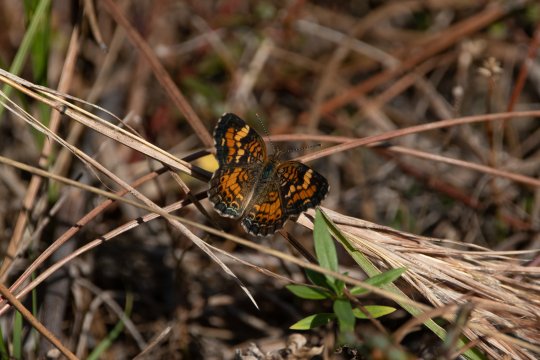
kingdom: Animalia
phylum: Arthropoda
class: Insecta
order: Lepidoptera
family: Nymphalidae
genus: Phyciodes
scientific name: Phyciodes phaon
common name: Phaon Crescent
